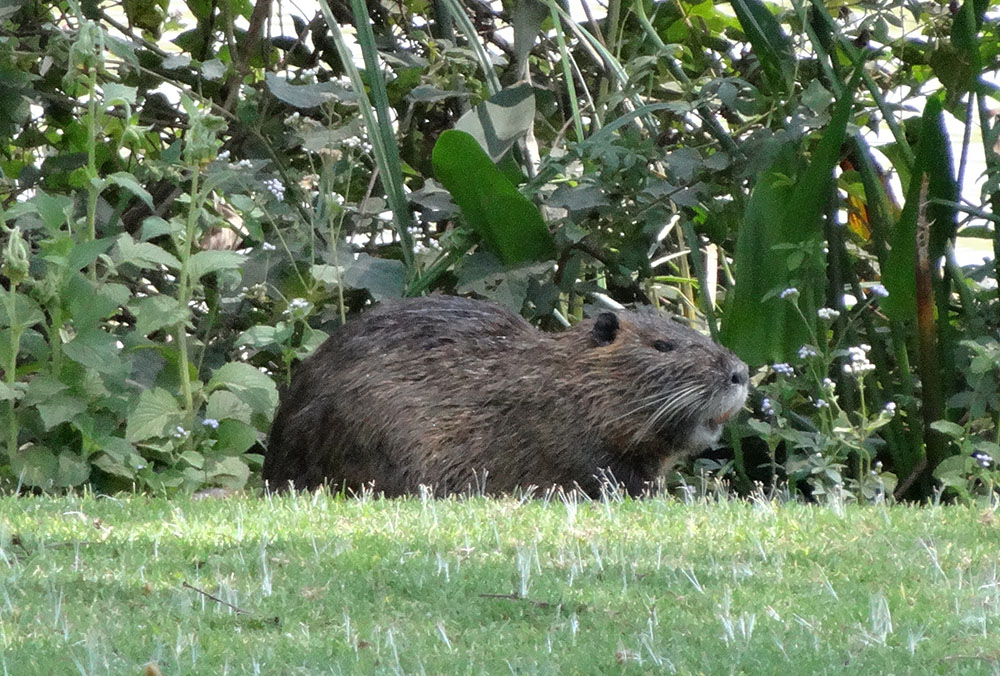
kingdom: Animalia
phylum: Chordata
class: Mammalia
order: Rodentia
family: Myocastoridae
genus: Myocastor
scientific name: Myocastor coypus
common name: Coypu
